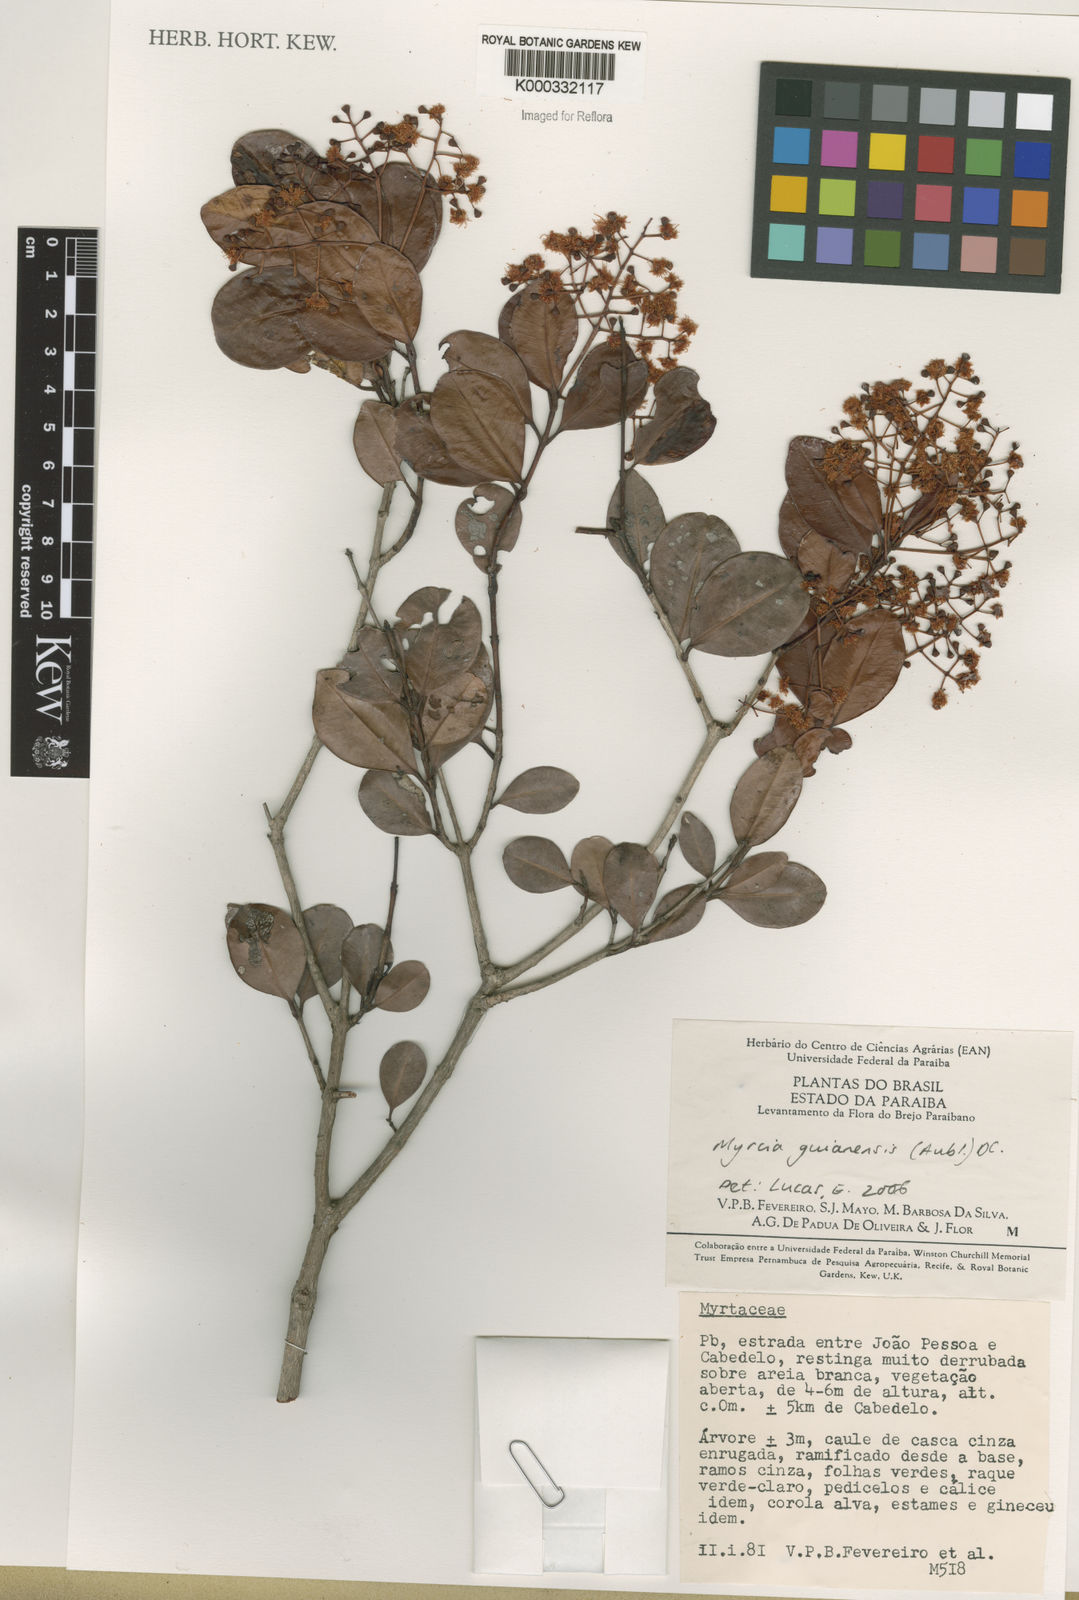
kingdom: Plantae
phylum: Tracheophyta
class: Magnoliopsida
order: Myrtales
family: Myrtaceae
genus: Myrcia
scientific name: Myrcia guianensis
